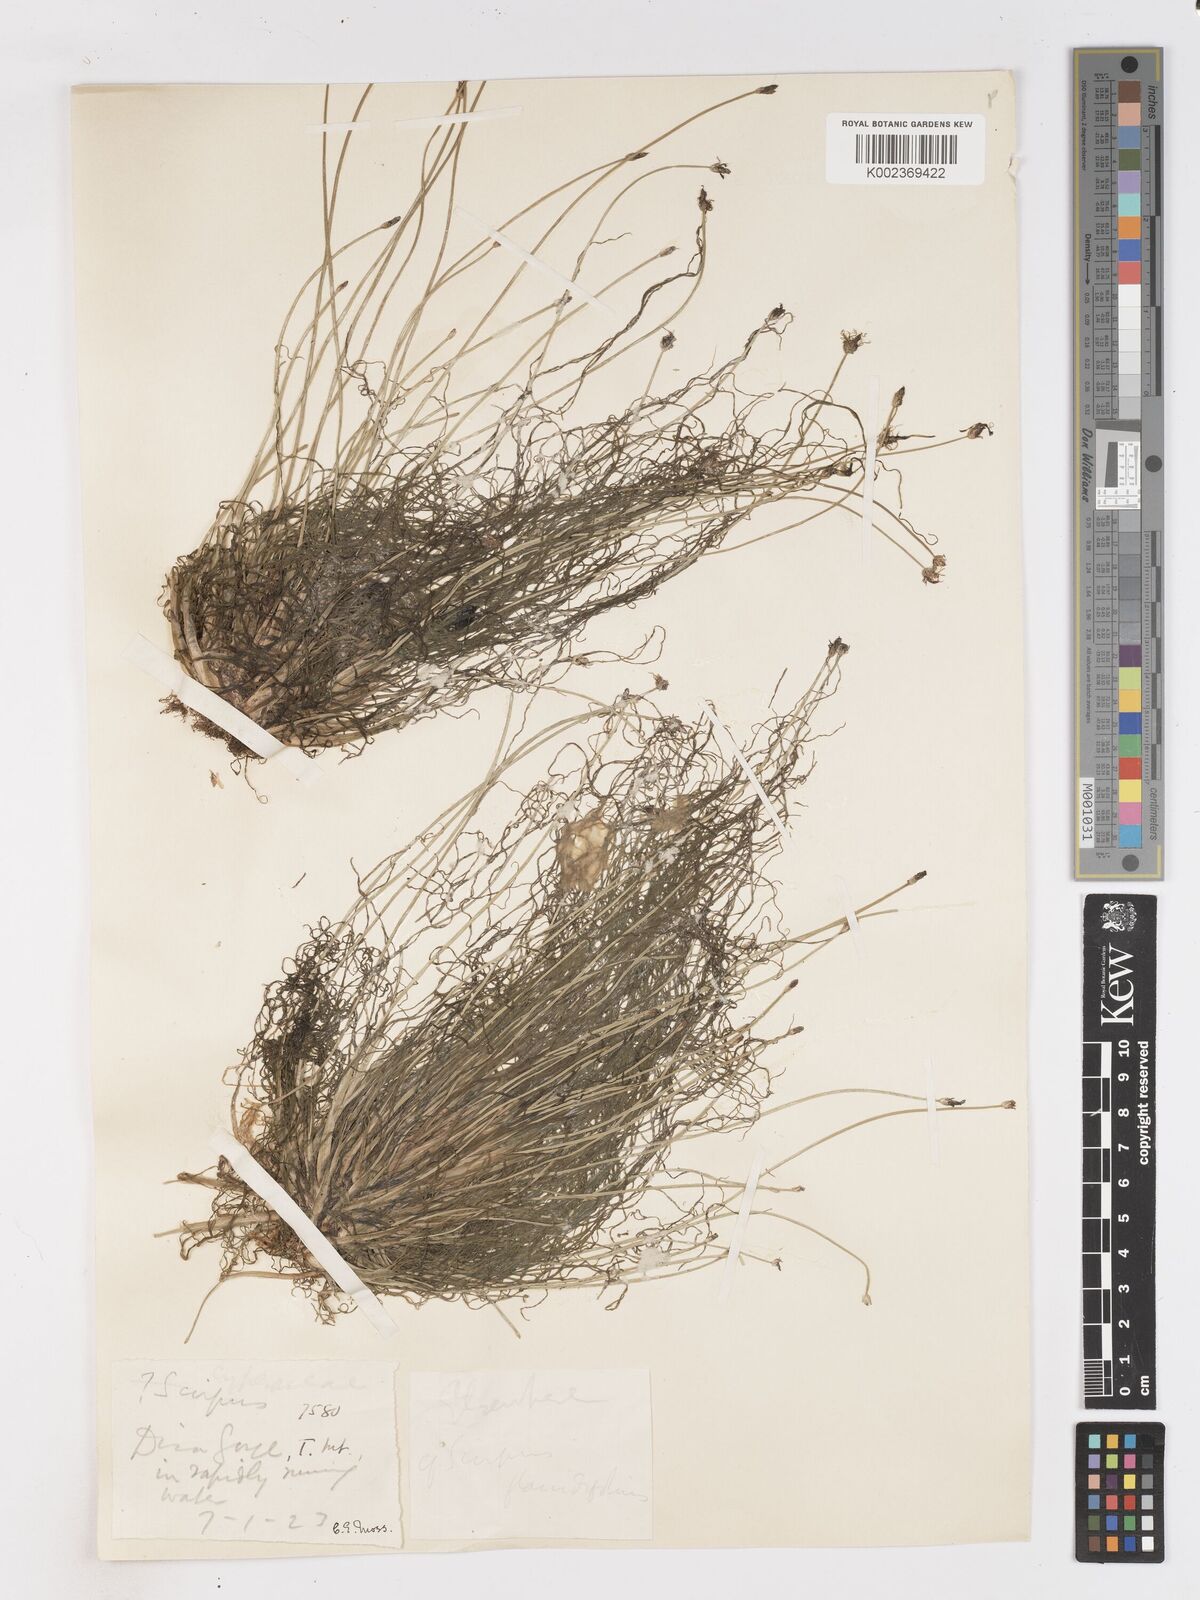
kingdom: Plantae
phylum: Tracheophyta
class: Liliopsida
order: Poales
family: Cyperaceae
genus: Isolepis
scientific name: Isolepis digitata
